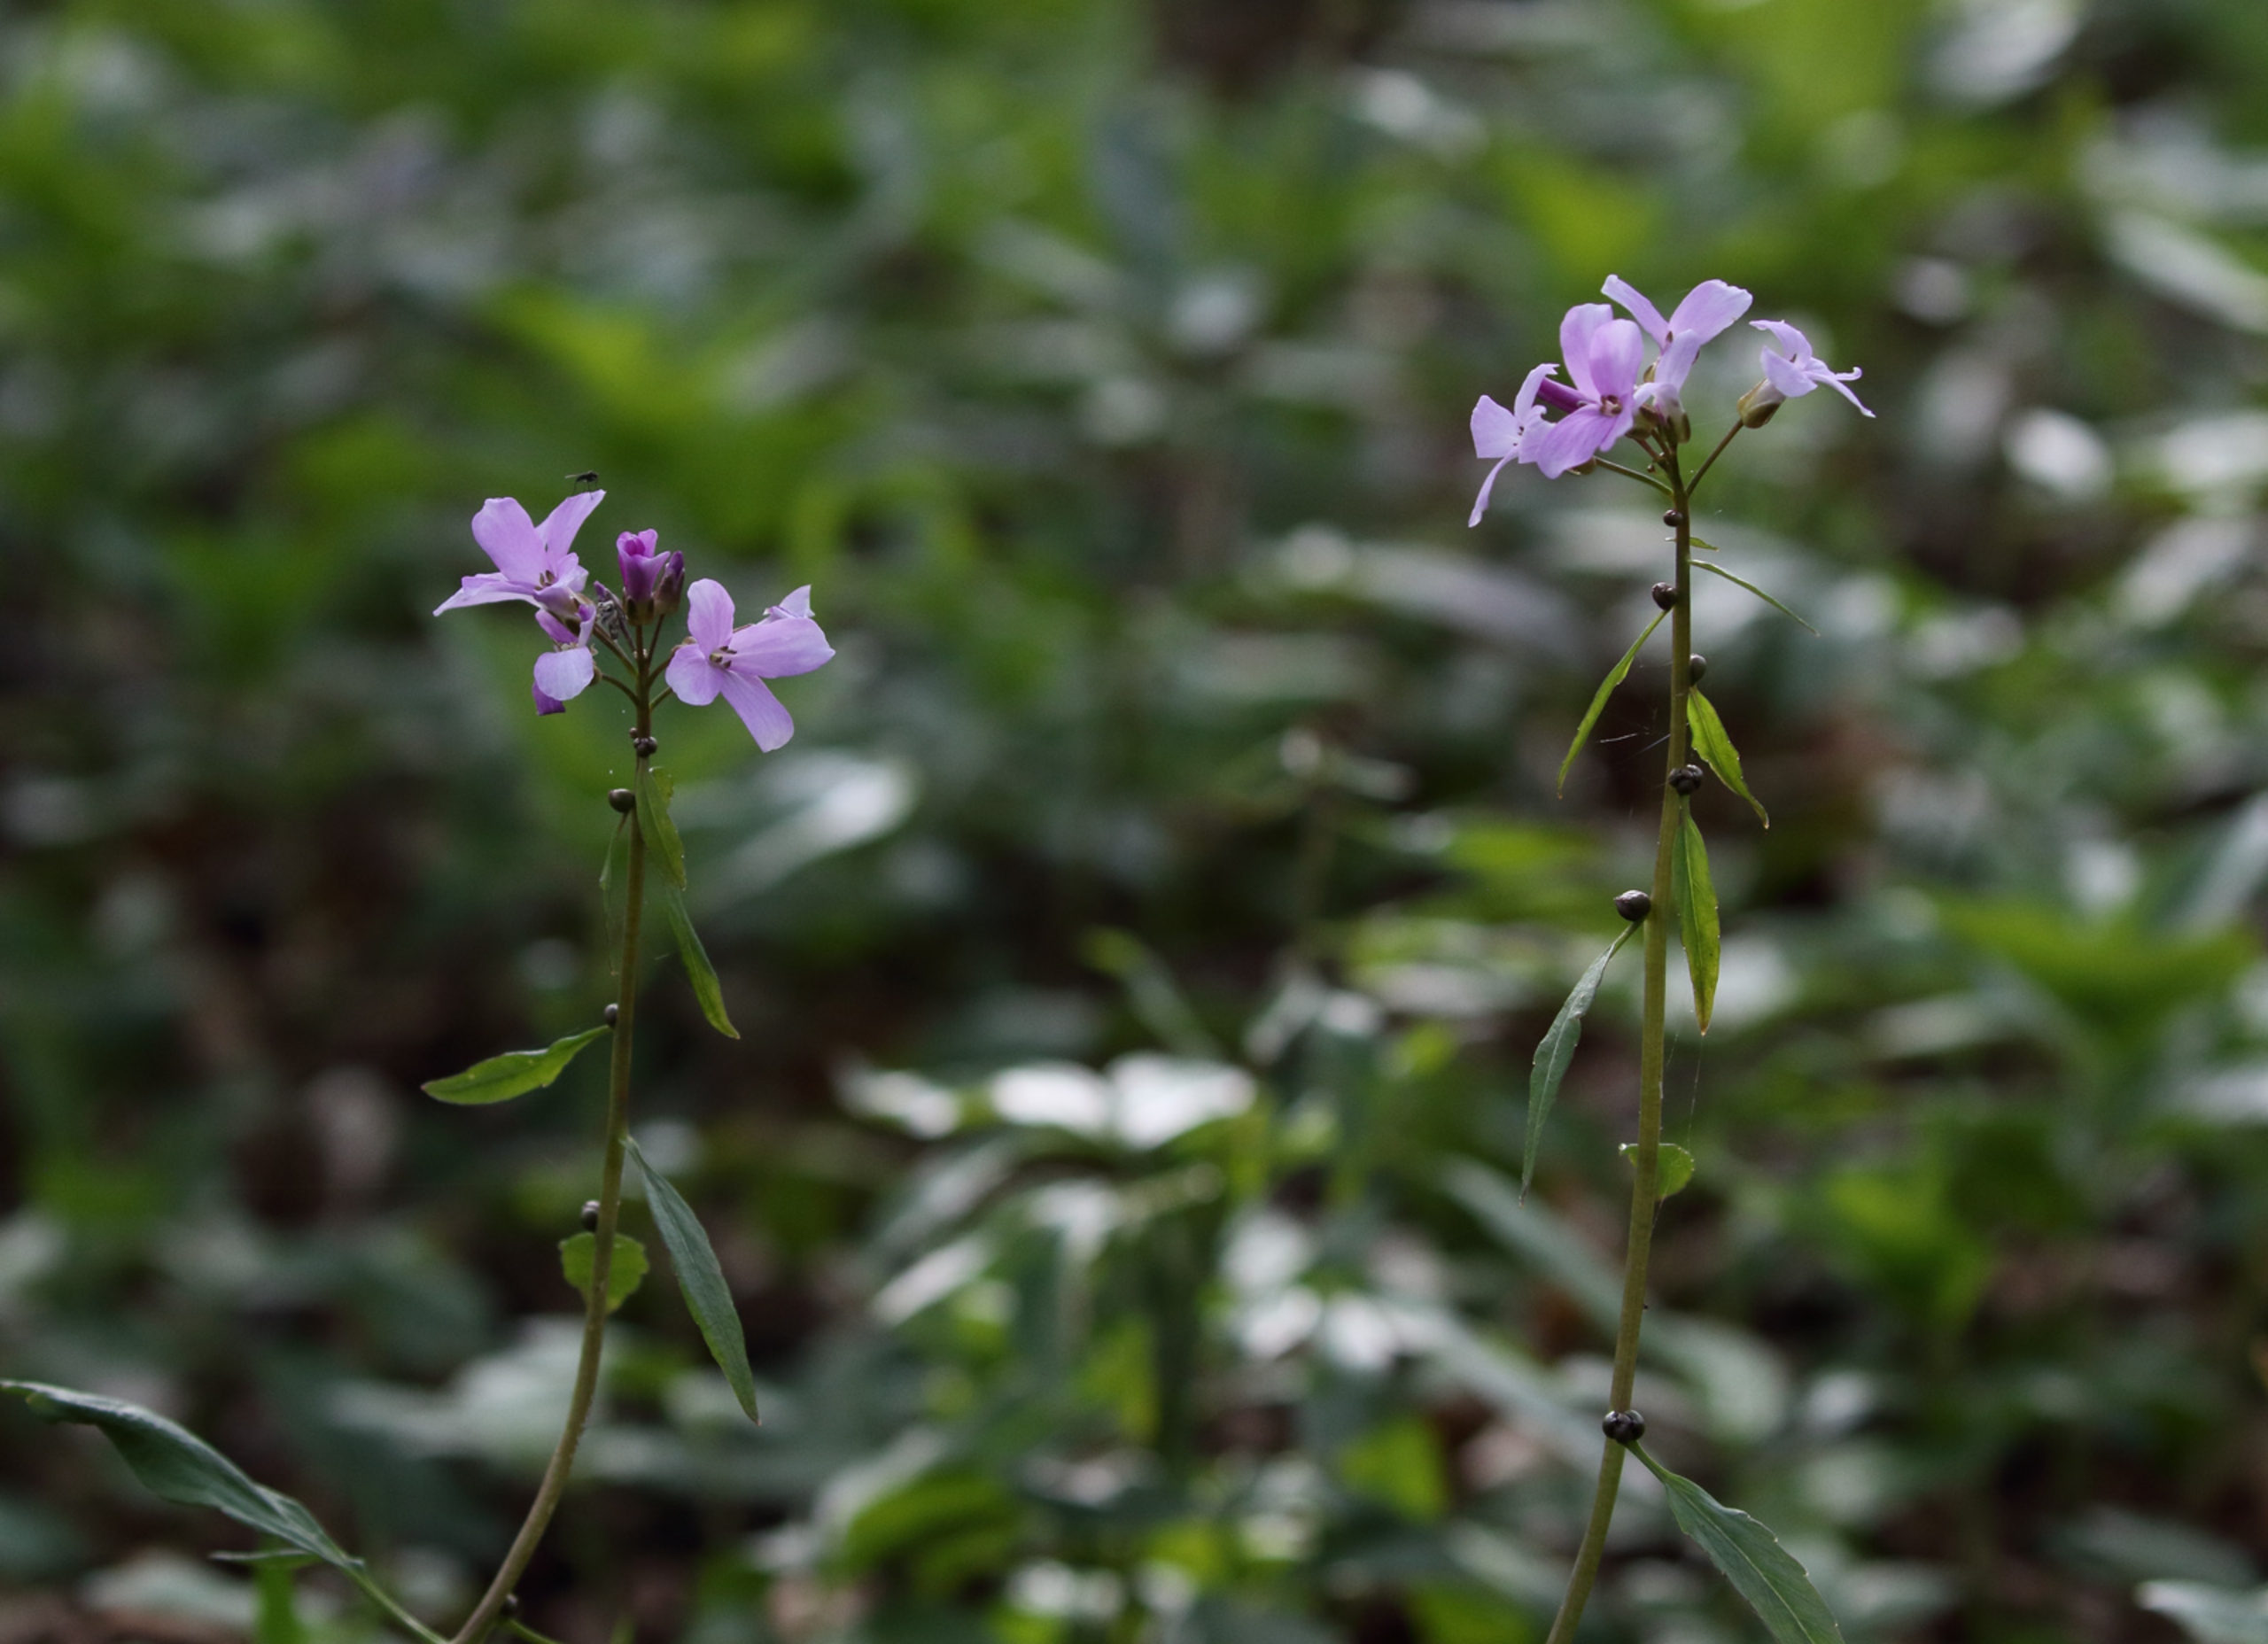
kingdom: Plantae
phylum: Tracheophyta
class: Magnoliopsida
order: Brassicales
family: Brassicaceae
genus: Cardamine
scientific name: Cardamine bulbifera
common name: Tandrod
